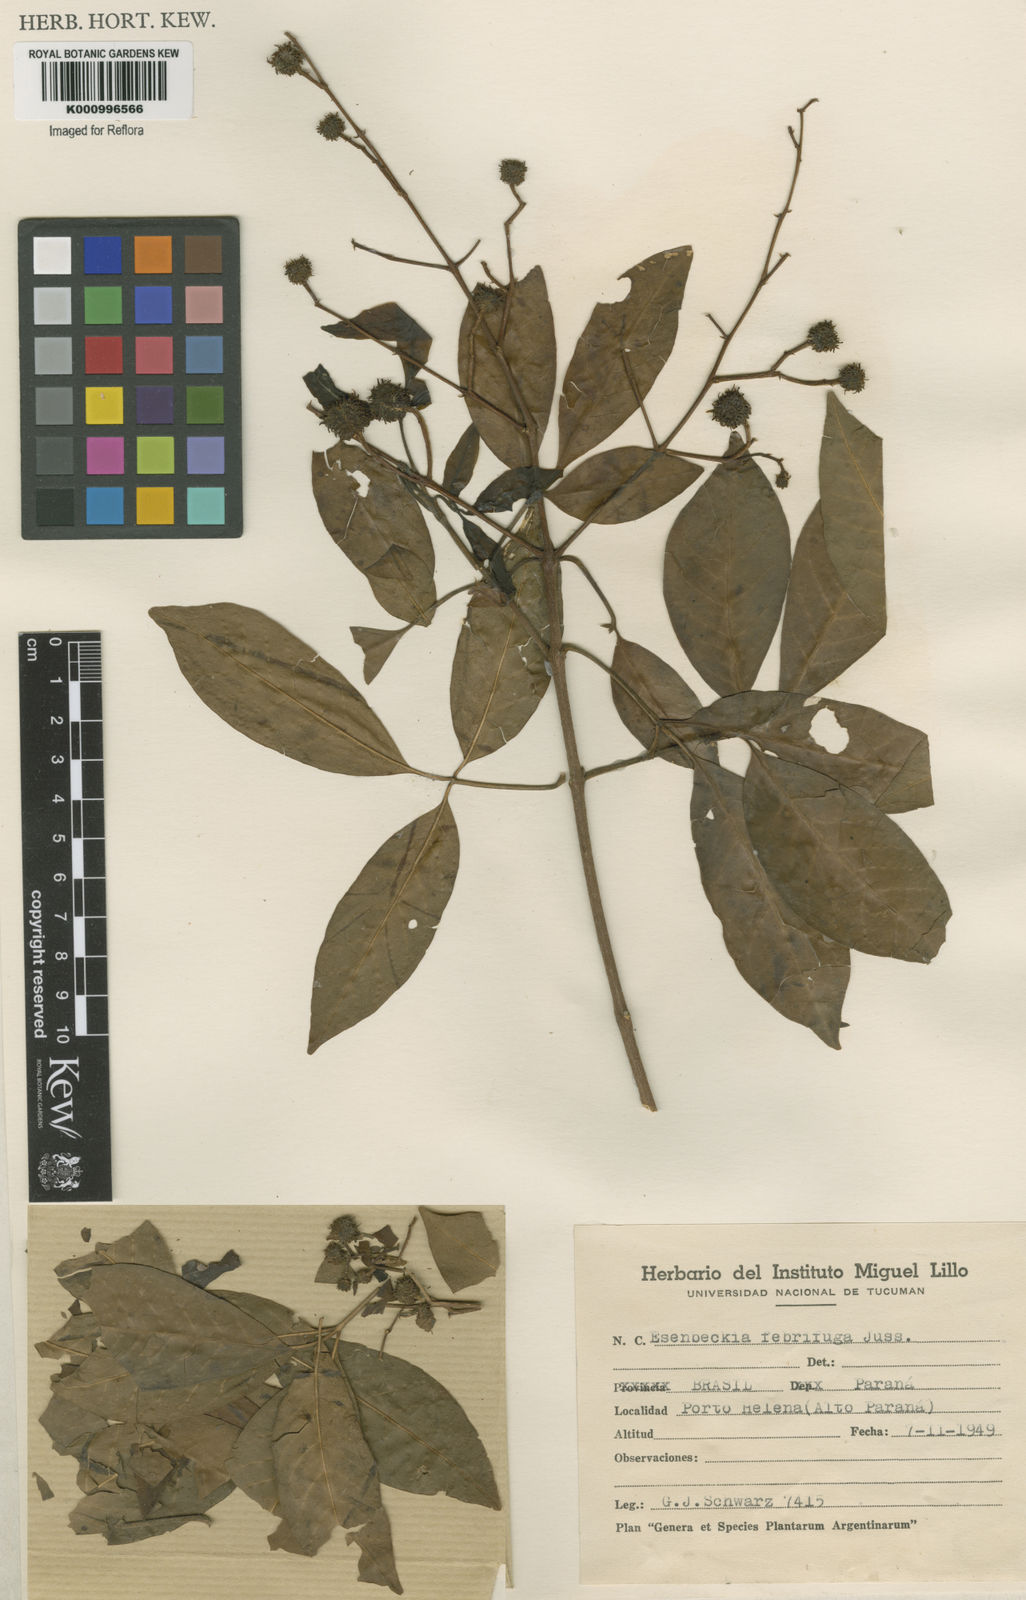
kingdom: Plantae
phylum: Tracheophyta
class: Magnoliopsida
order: Sapindales
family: Rutaceae
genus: Esenbeckia
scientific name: Esenbeckia febrifuga
